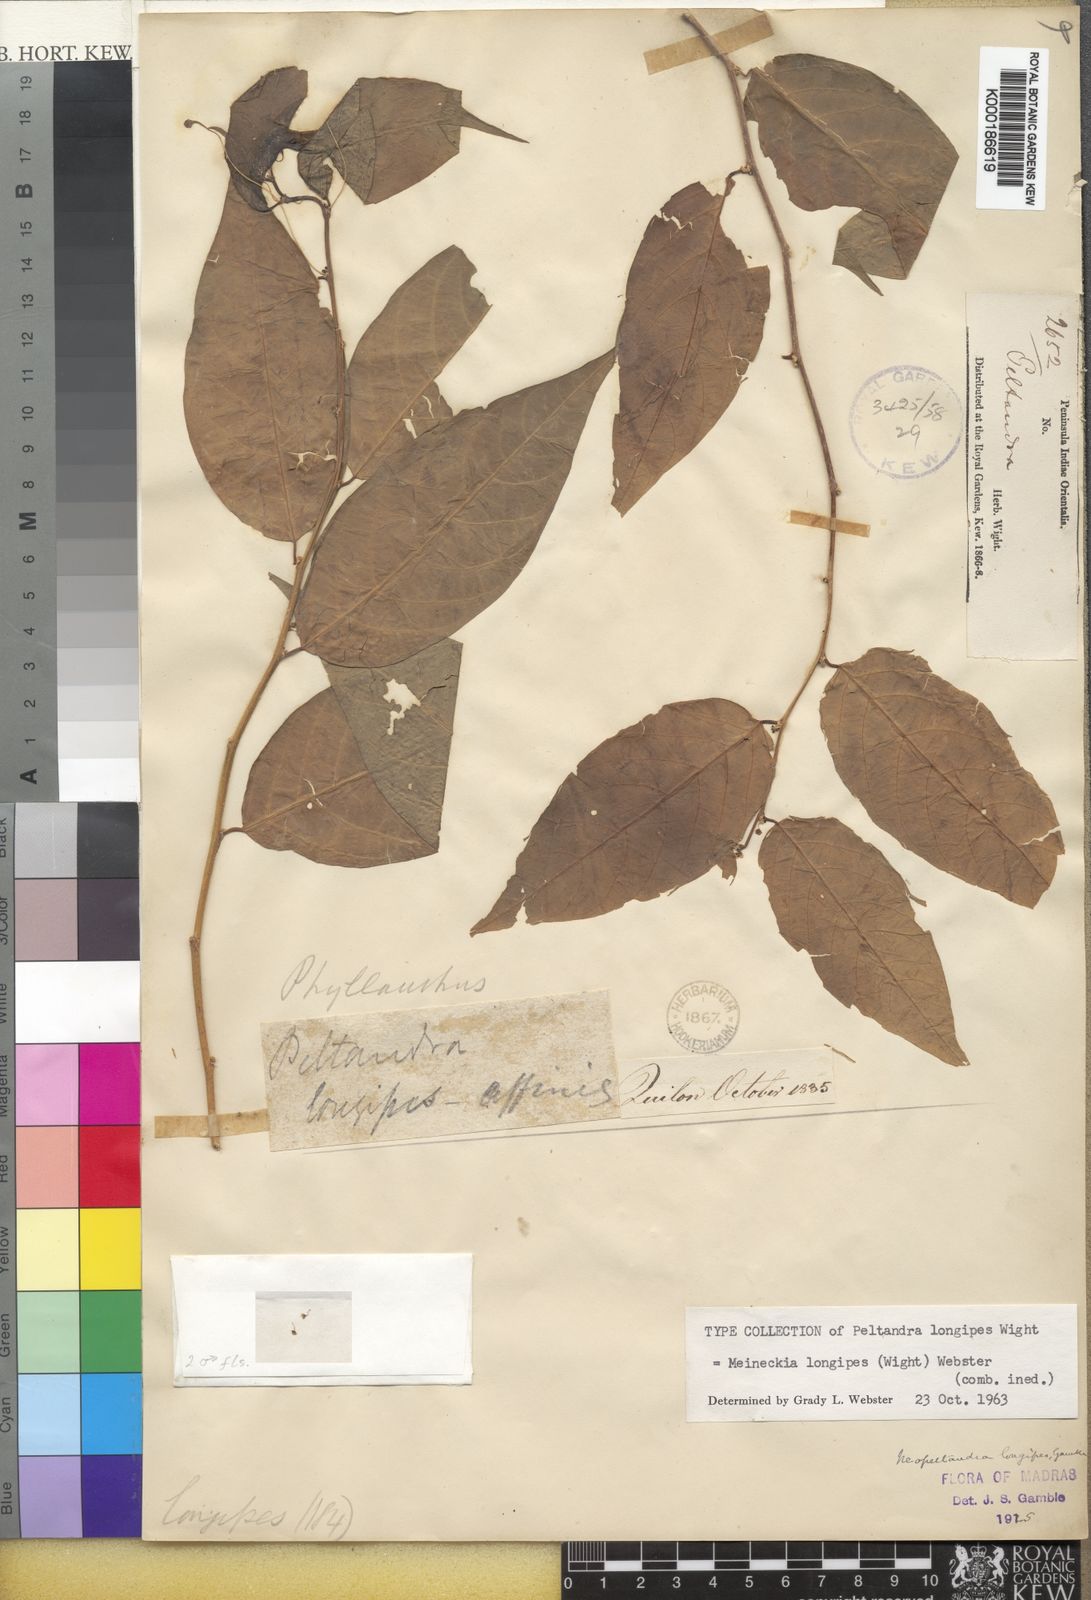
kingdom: Plantae
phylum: Tracheophyta
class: Magnoliopsida
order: Malpighiales
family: Phyllanthaceae
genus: Meineckia
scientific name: Meineckia longipes
